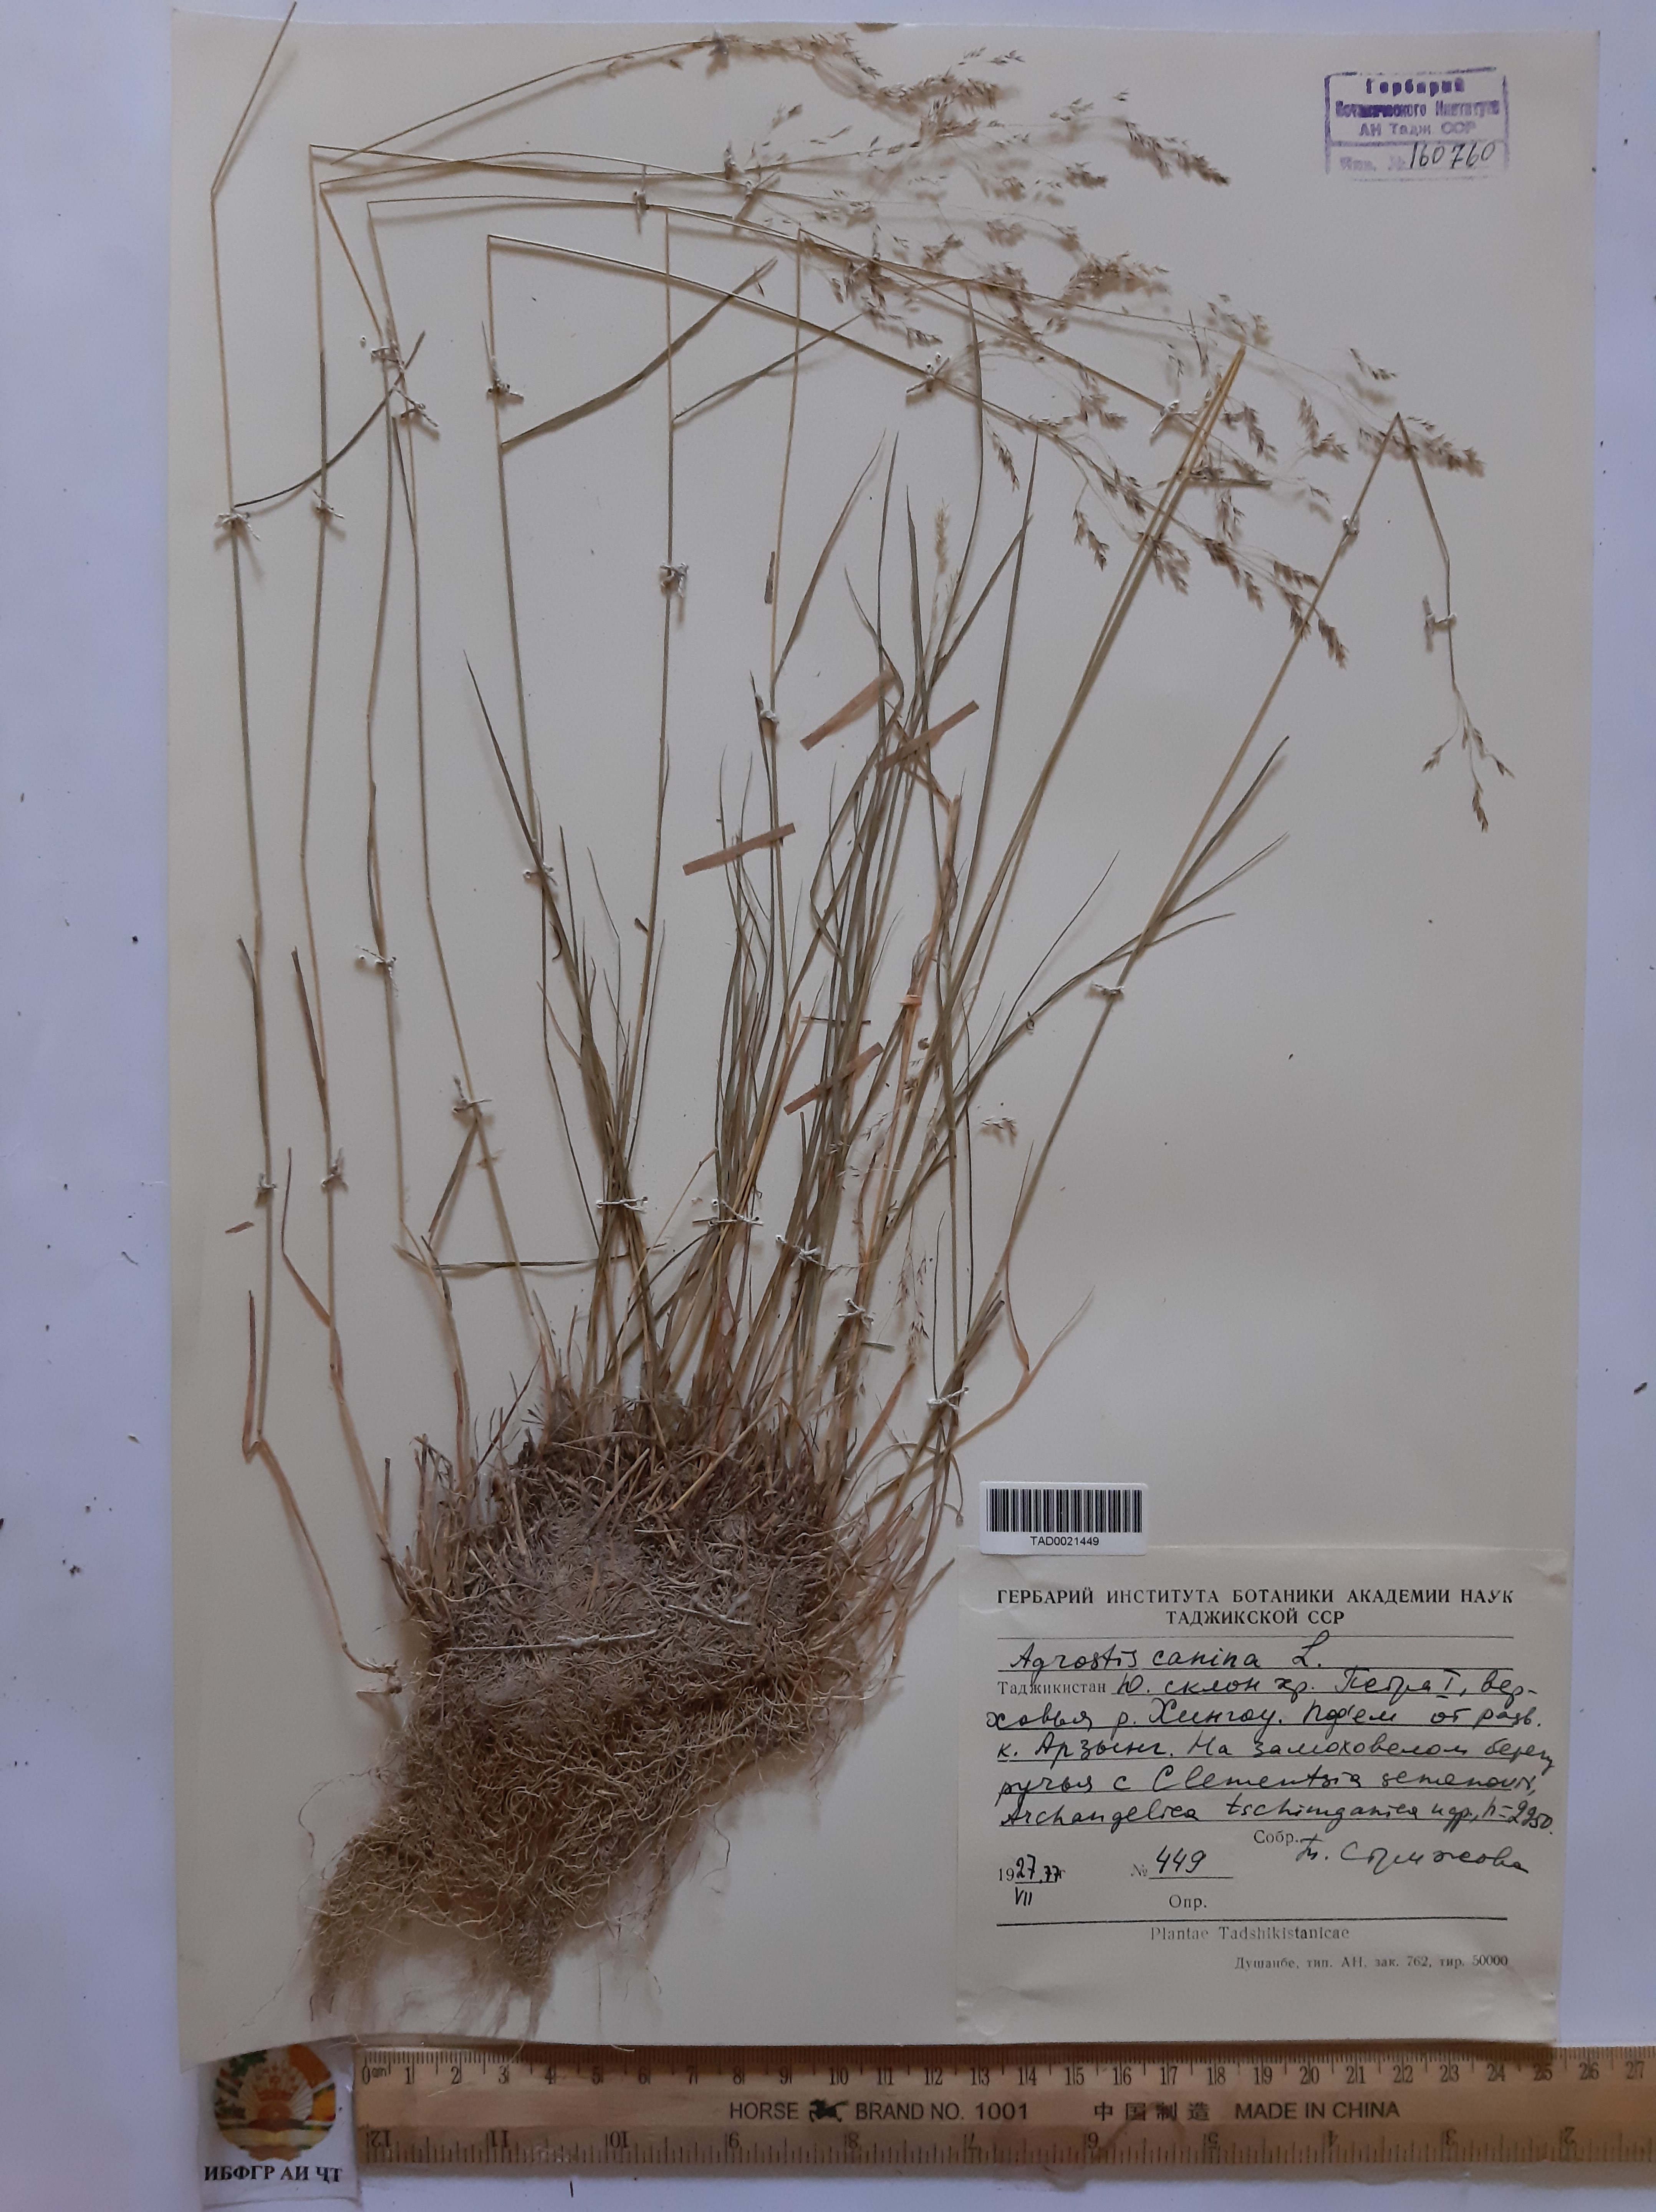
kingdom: Plantae
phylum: Tracheophyta
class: Liliopsida
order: Poales
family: Poaceae
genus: Agrostis
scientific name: Agrostis canina
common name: Velvet bent
